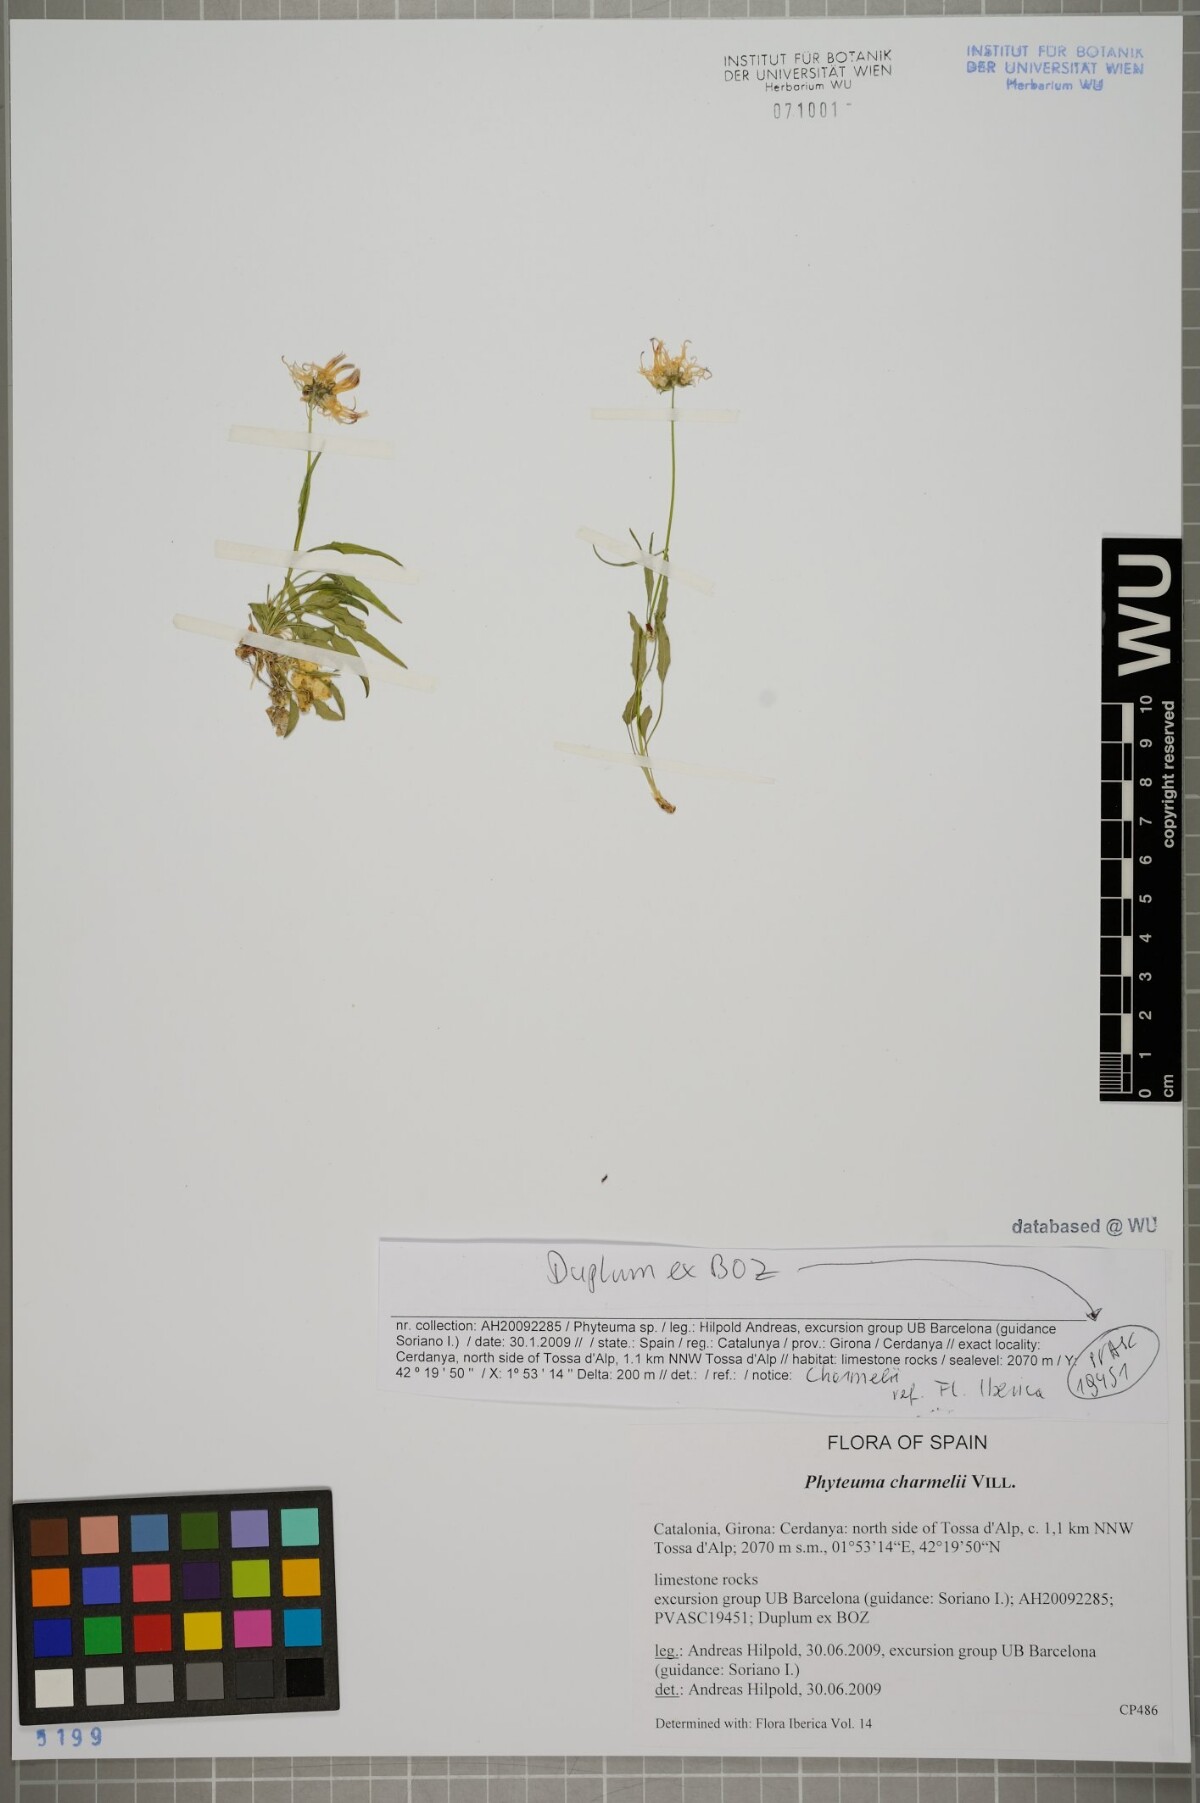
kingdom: Plantae
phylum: Tracheophyta
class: Magnoliopsida
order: Asterales
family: Campanulaceae
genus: Phyteuma
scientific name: Phyteuma charmelii
